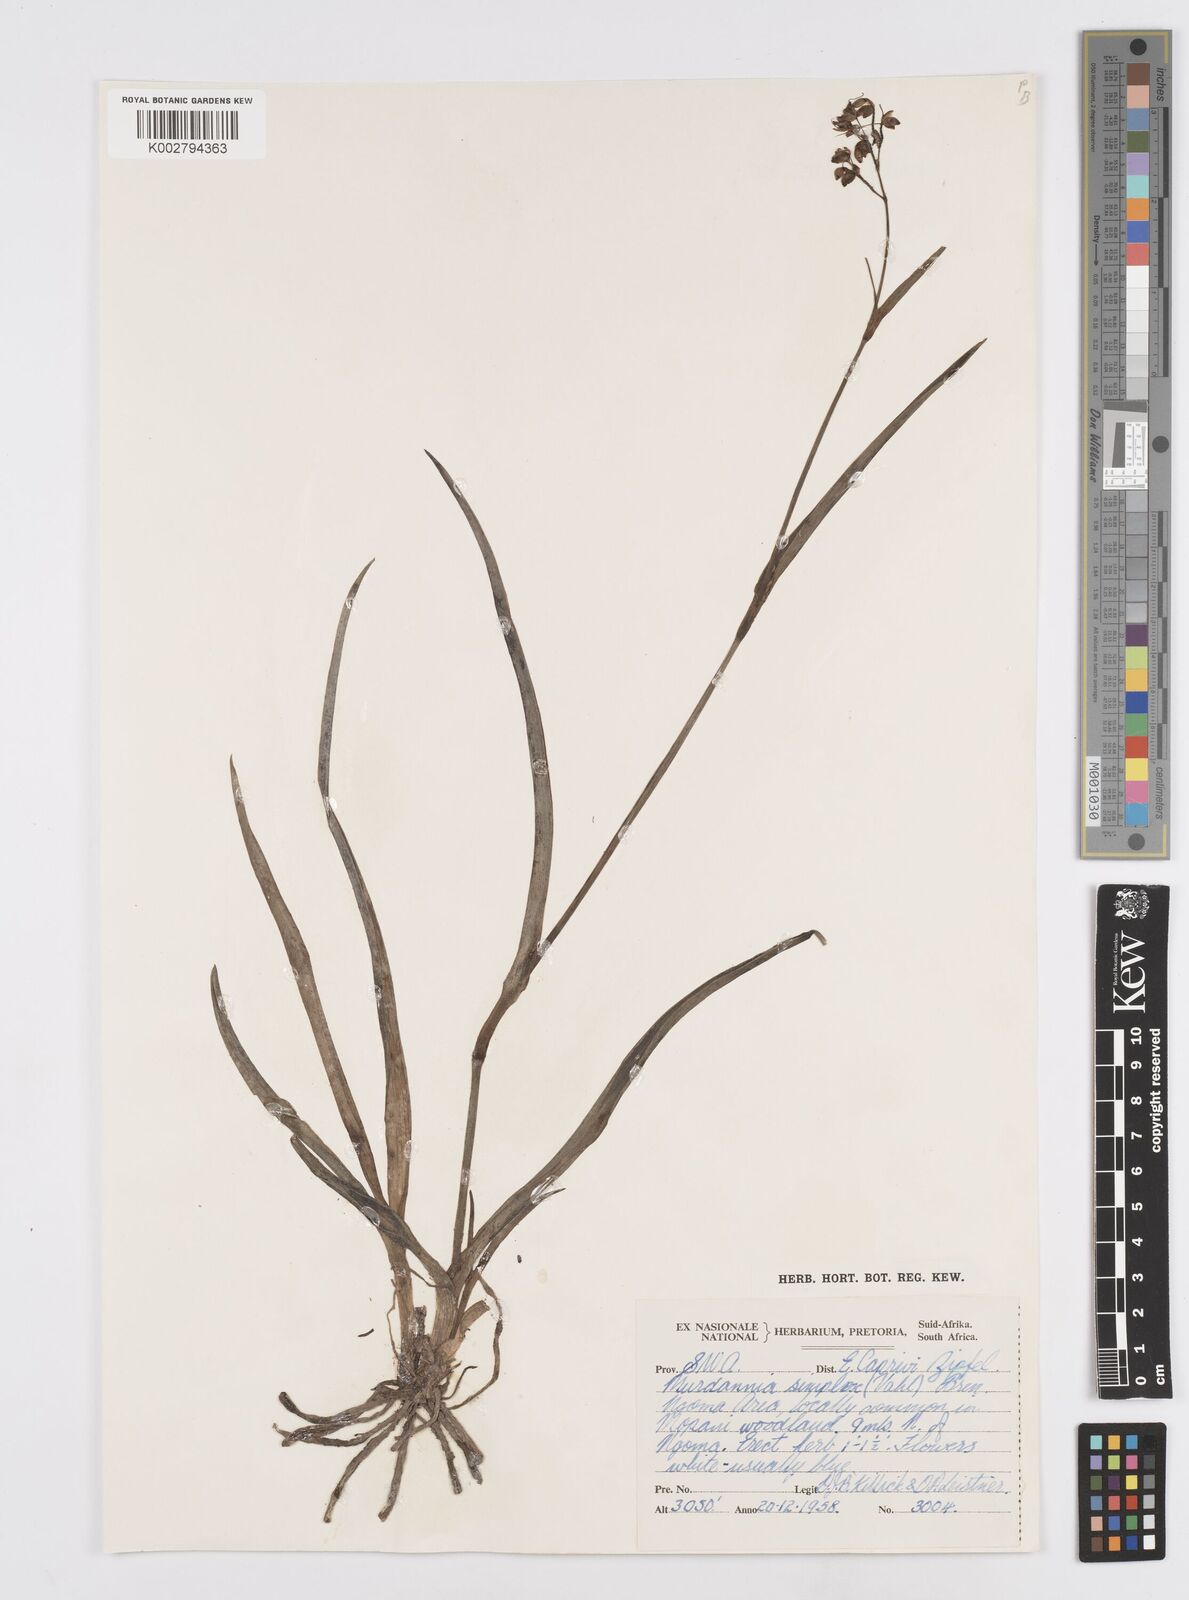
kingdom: Plantae
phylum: Tracheophyta
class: Liliopsida
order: Commelinales
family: Commelinaceae
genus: Murdannia
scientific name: Murdannia simplex
